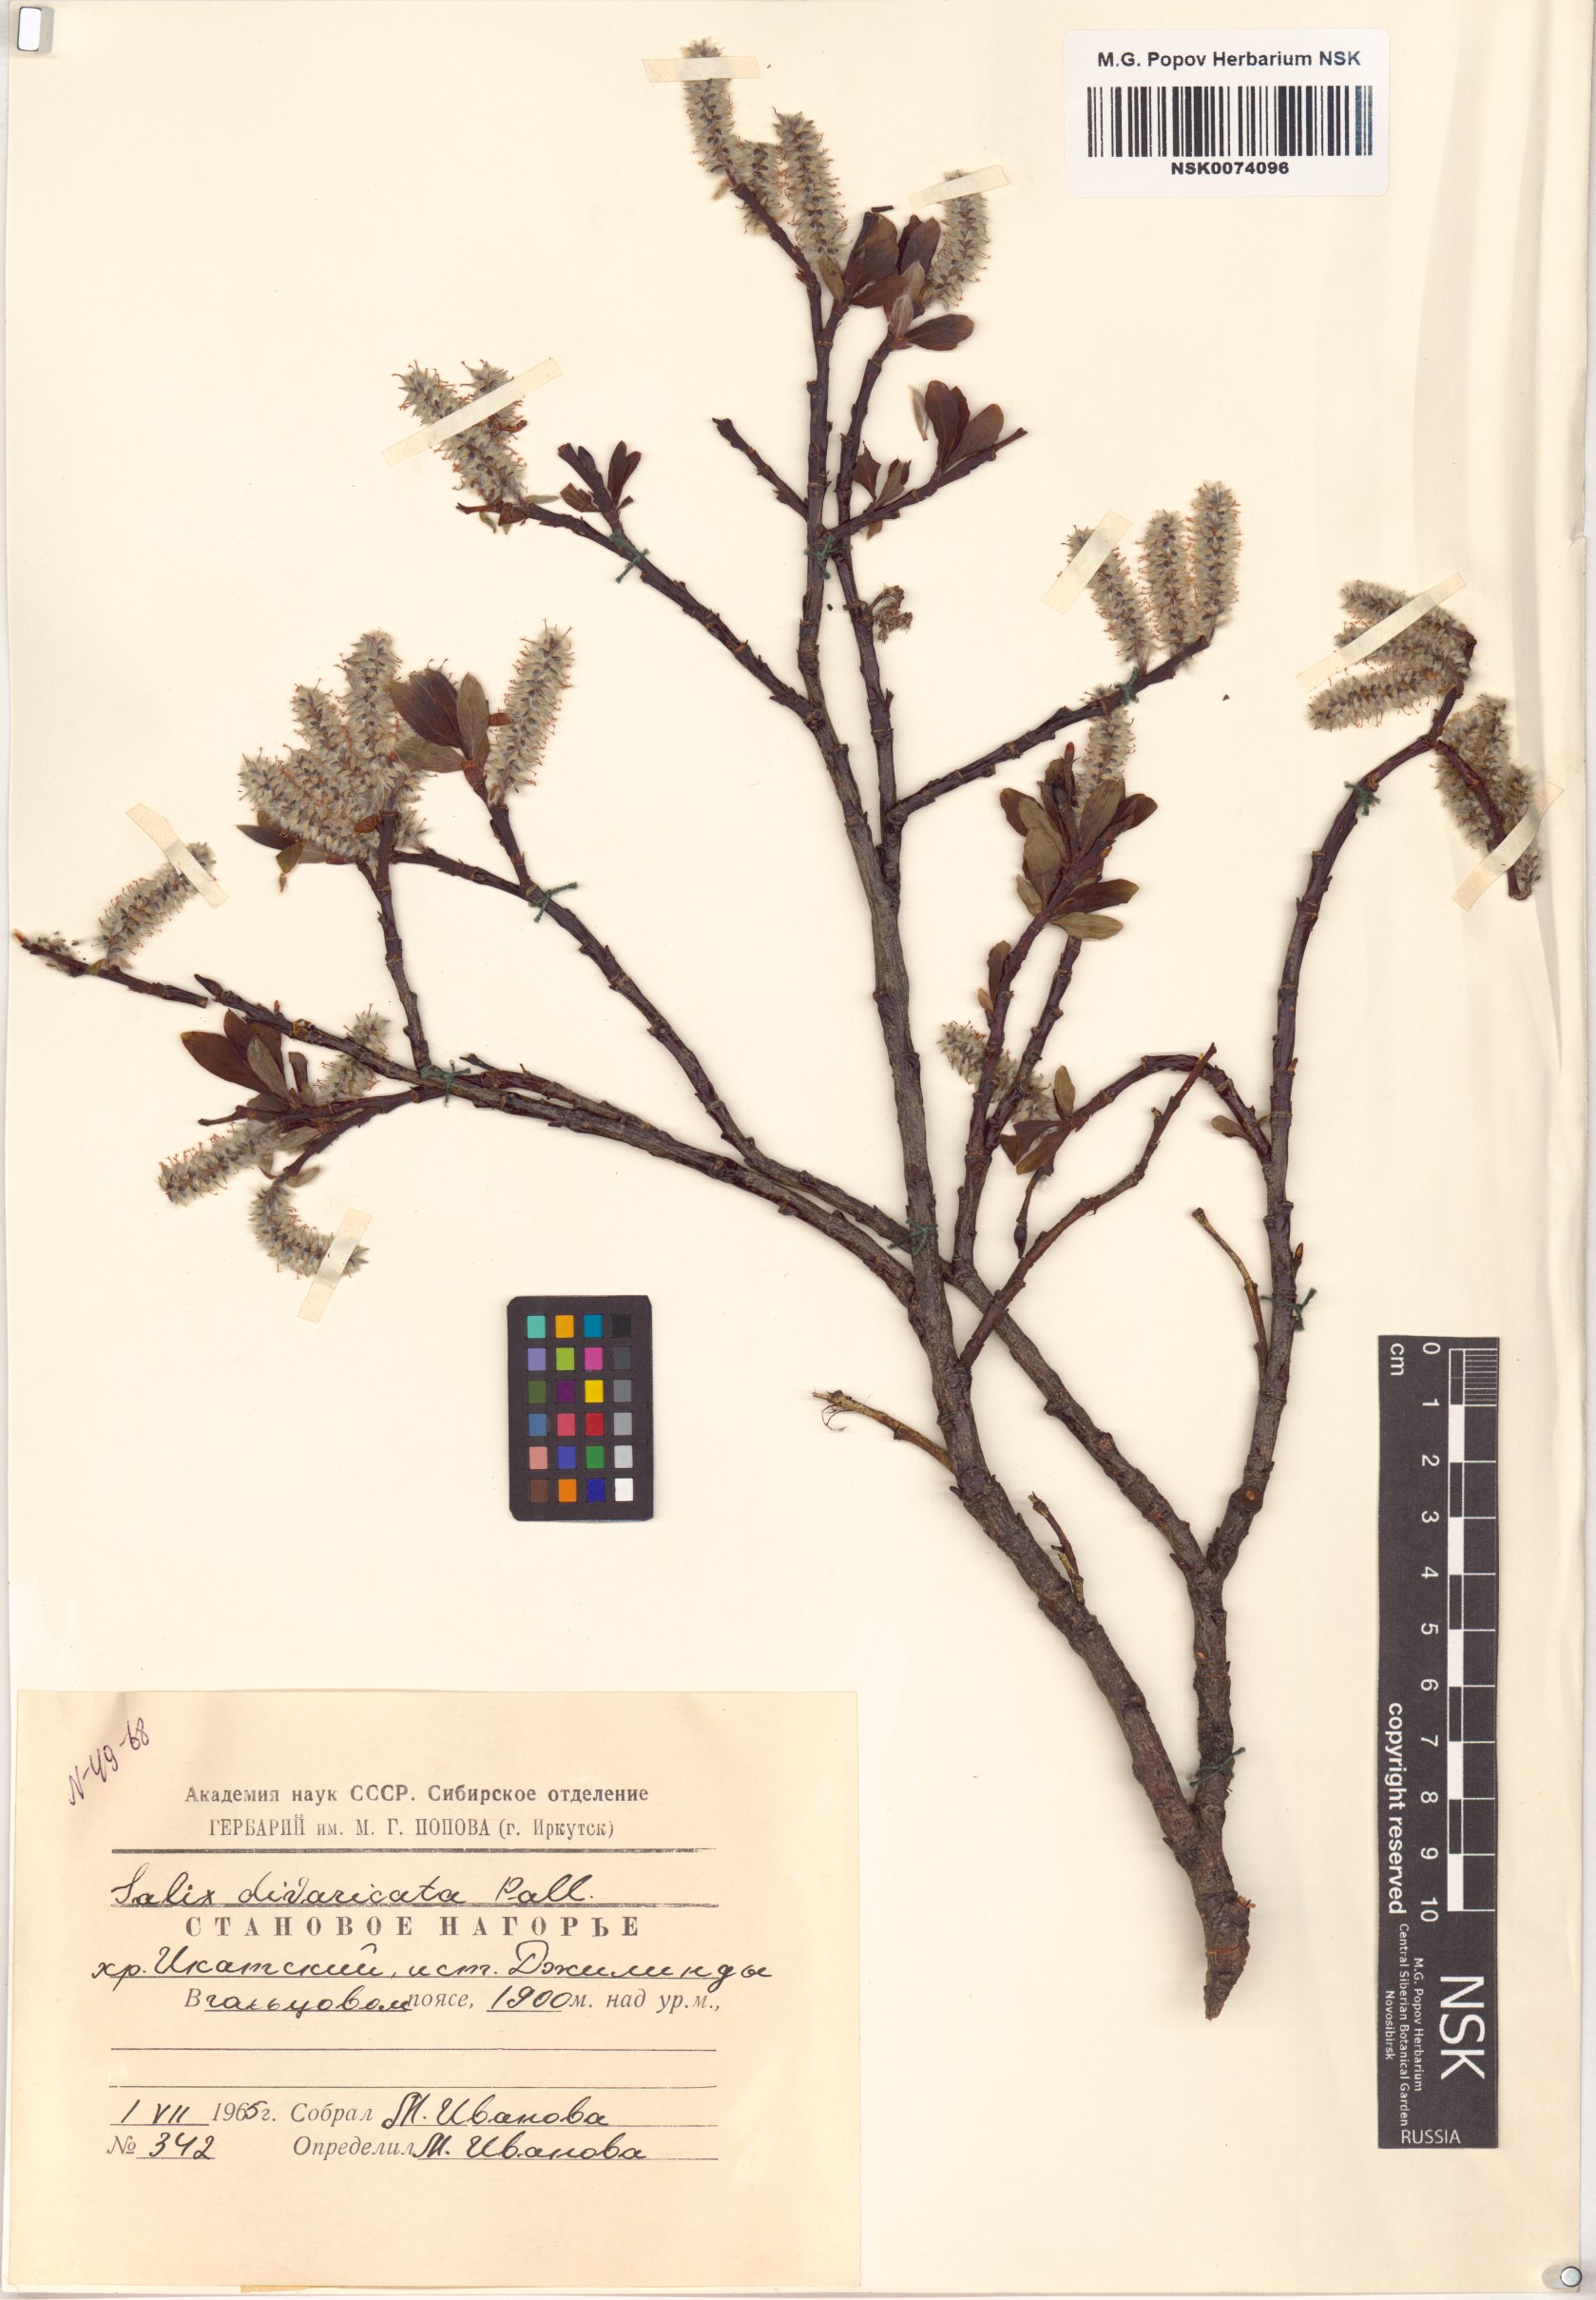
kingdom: Plantae
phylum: Tracheophyta
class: Magnoliopsida
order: Malpighiales
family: Salicaceae
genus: Salix
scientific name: Salix divaricata
